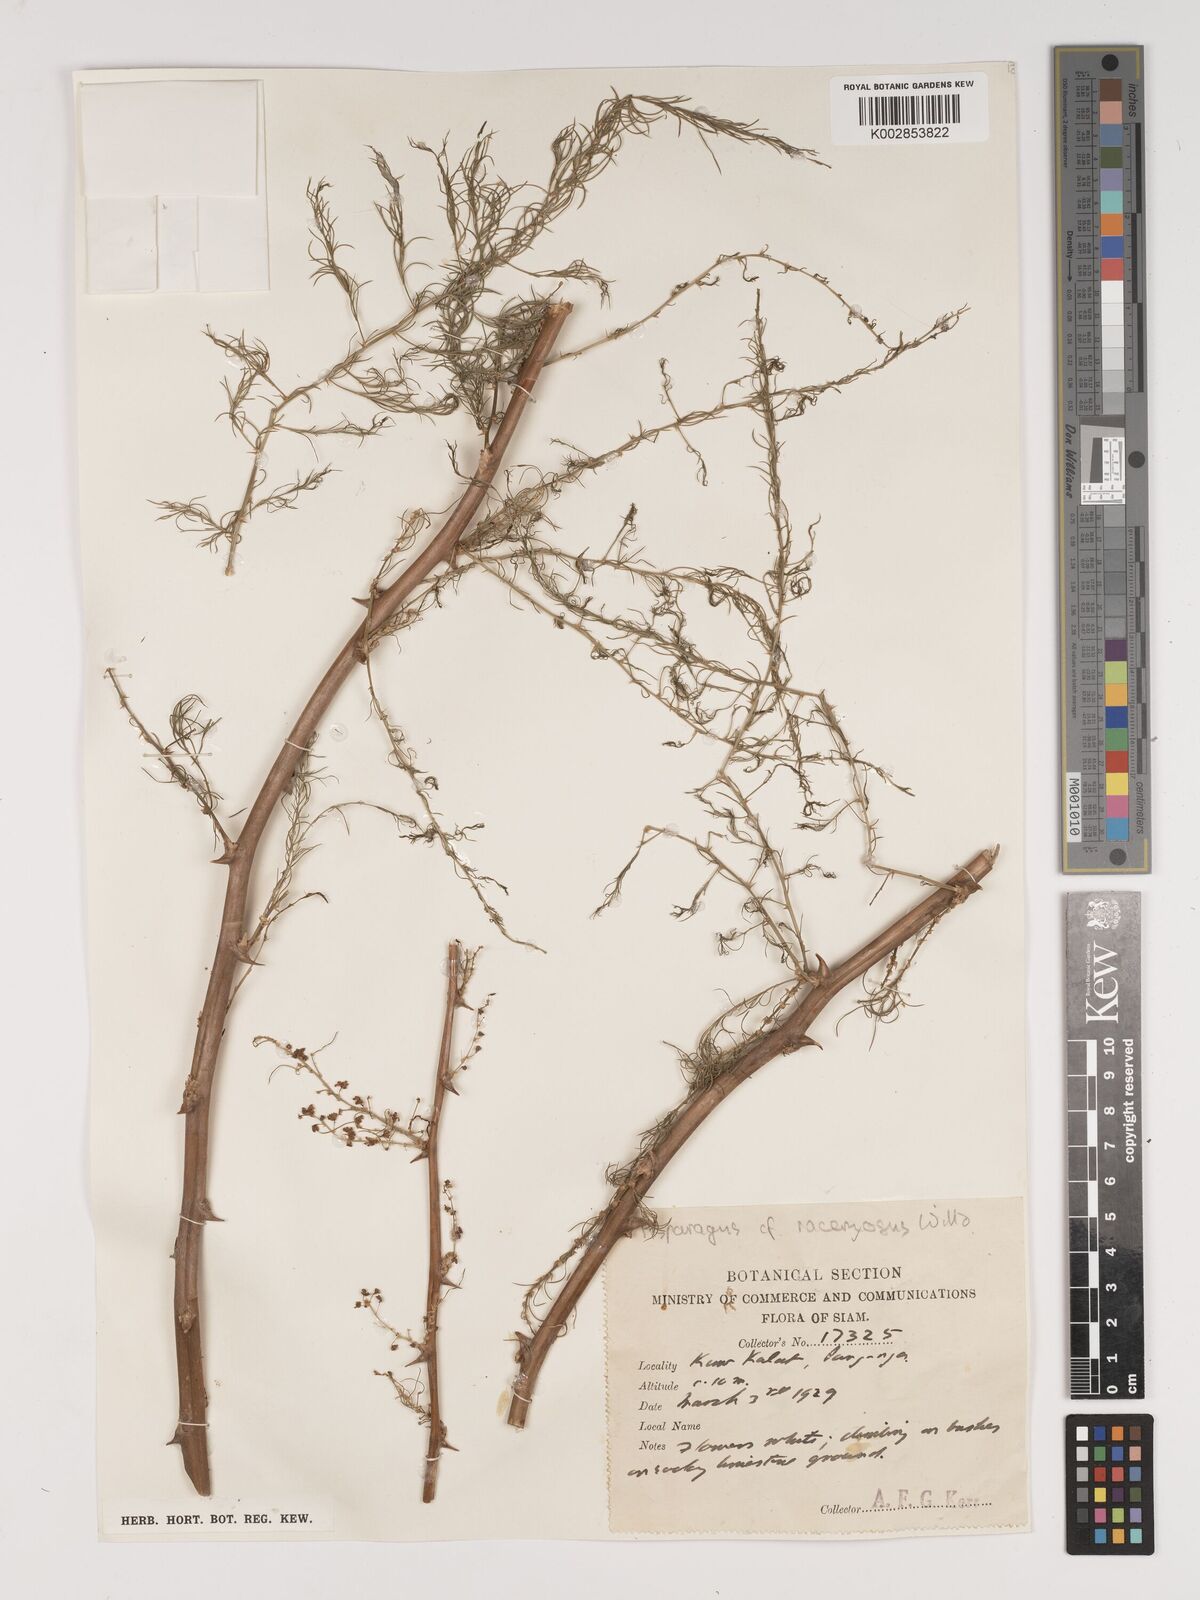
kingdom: Plantae
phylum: Tracheophyta
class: Liliopsida
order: Asparagales
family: Asparagaceae
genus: Asparagus
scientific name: Asparagus
